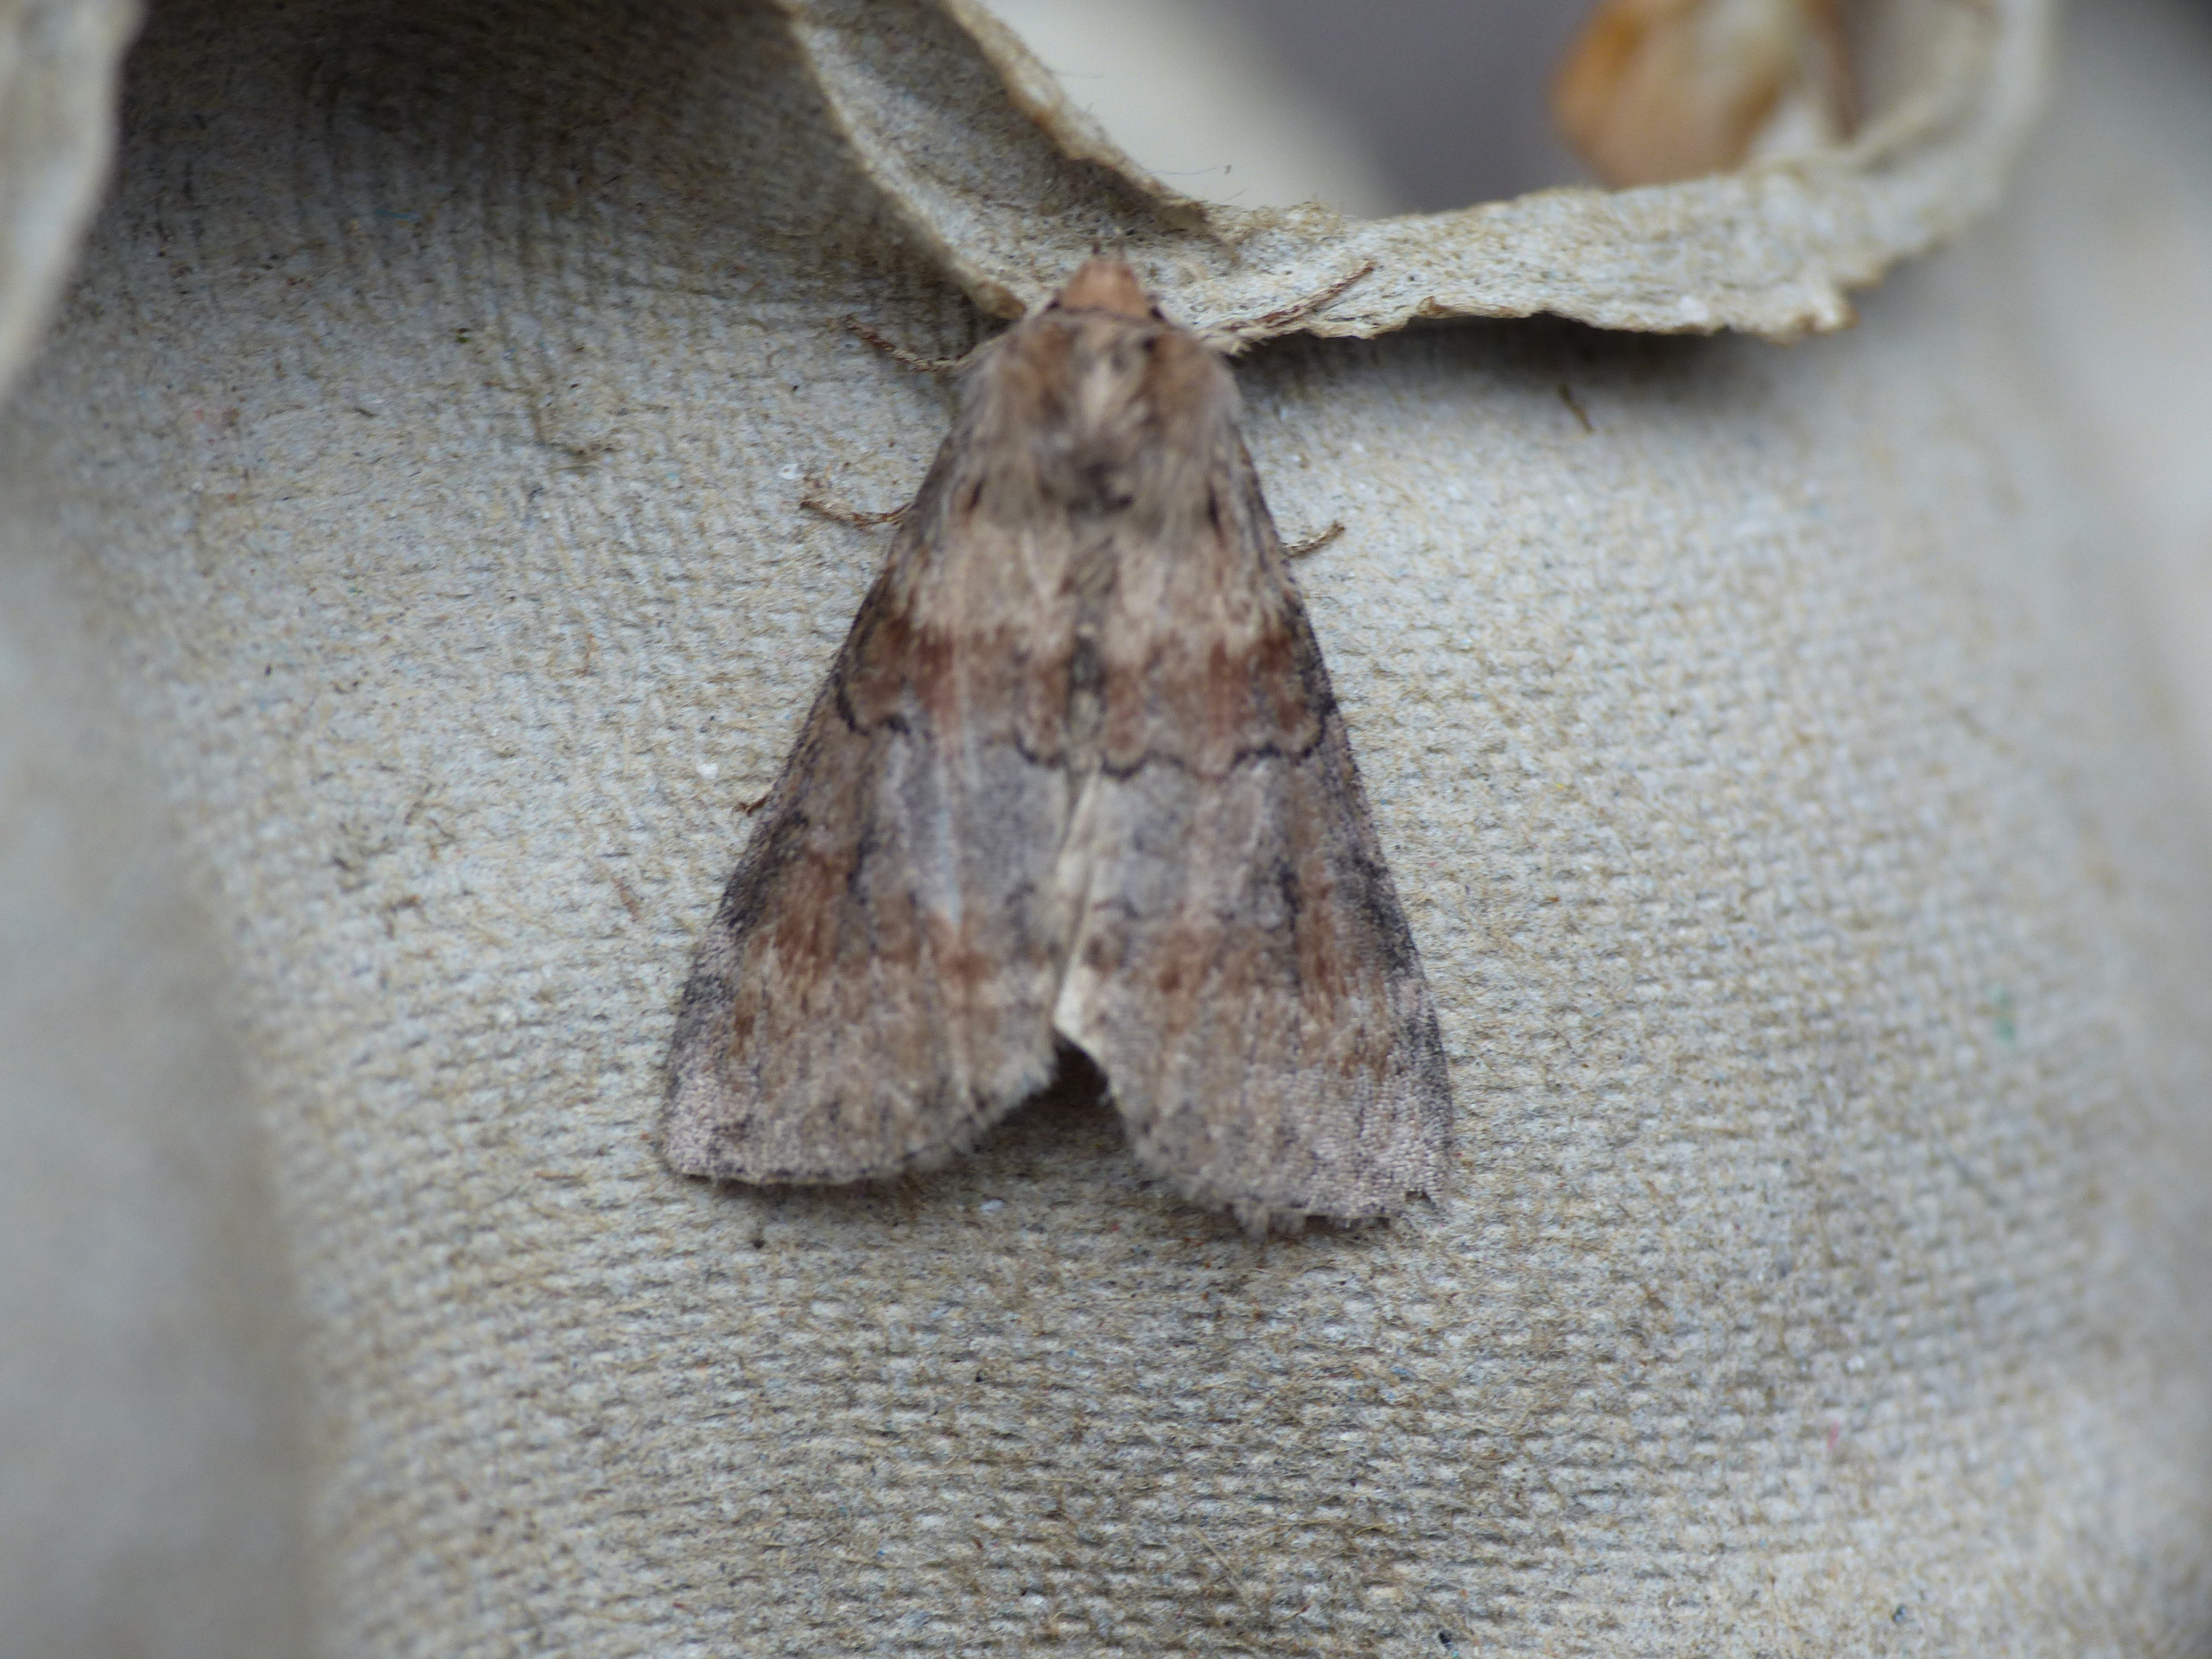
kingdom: Animalia
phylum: Arthropoda
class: Insecta
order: Lepidoptera
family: Drepanidae
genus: Cymatophorina
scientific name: Cymatophorina diluta
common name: Brunbæltet uglespinder
